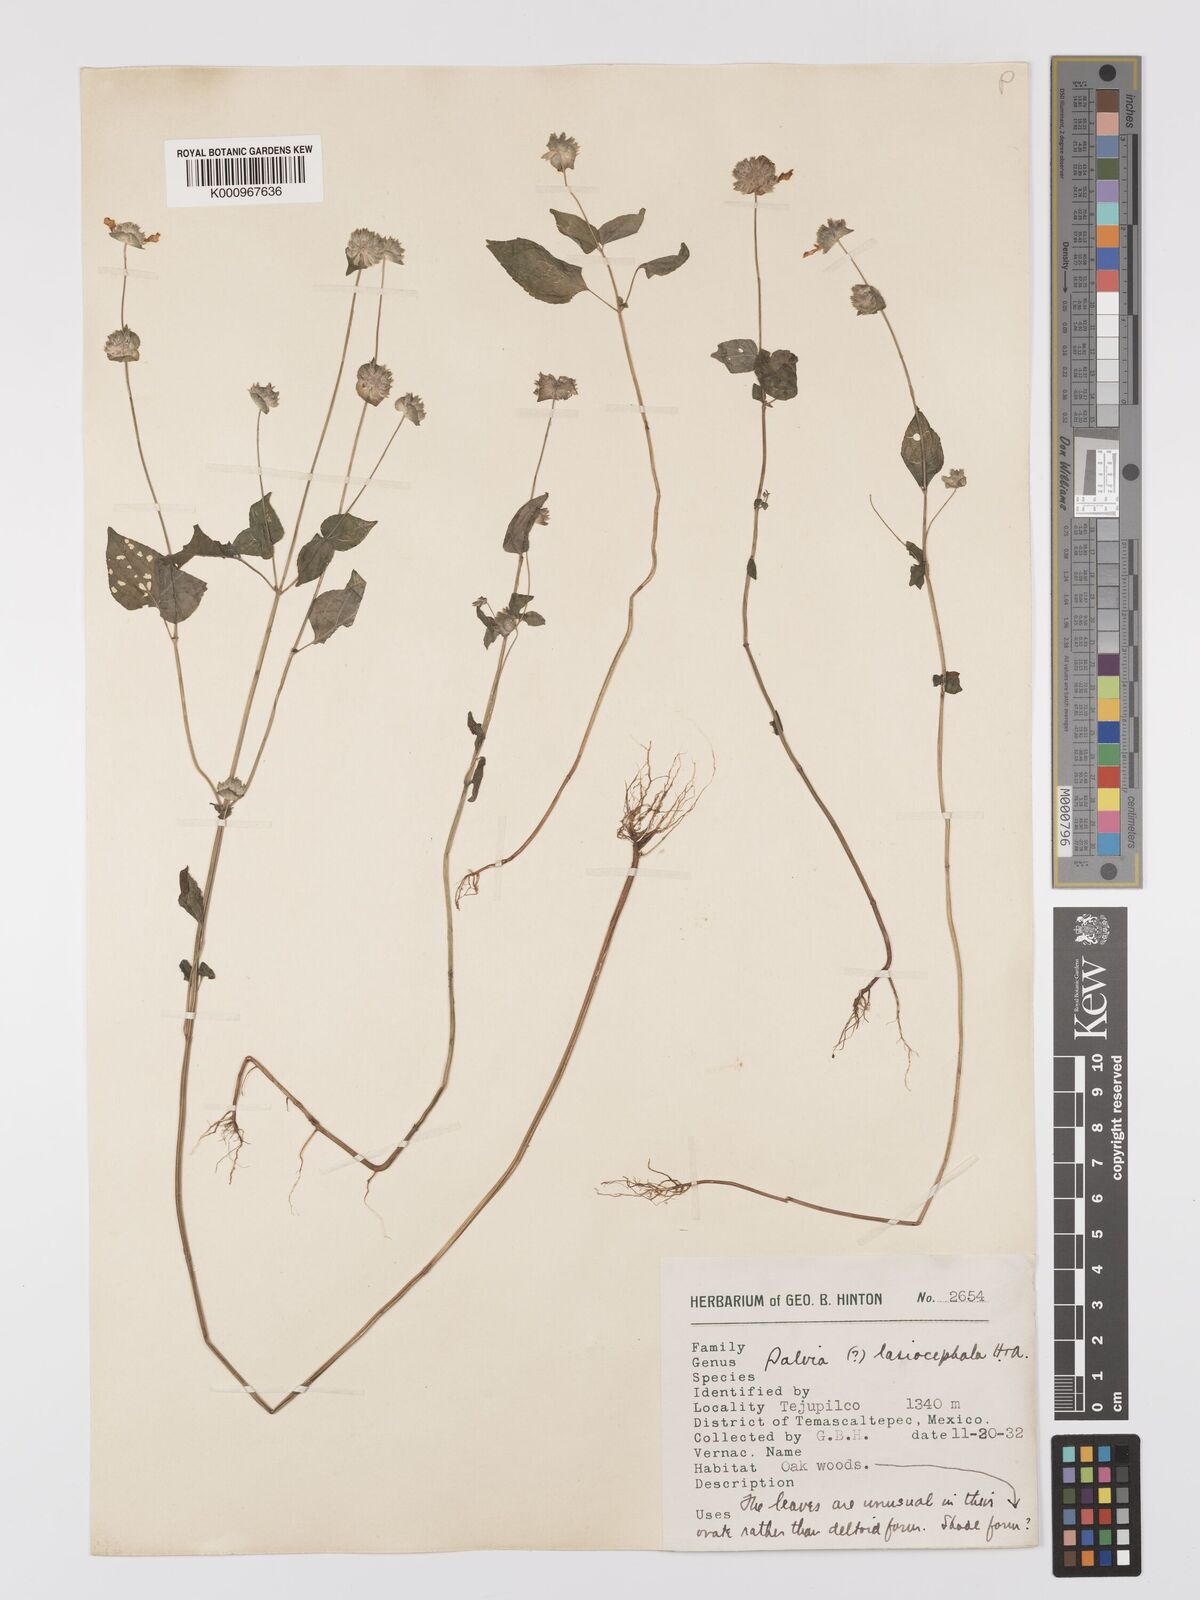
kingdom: Plantae
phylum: Tracheophyta
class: Magnoliopsida
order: Lamiales
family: Lamiaceae
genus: Salvia
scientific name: Salvia lasiocephala
